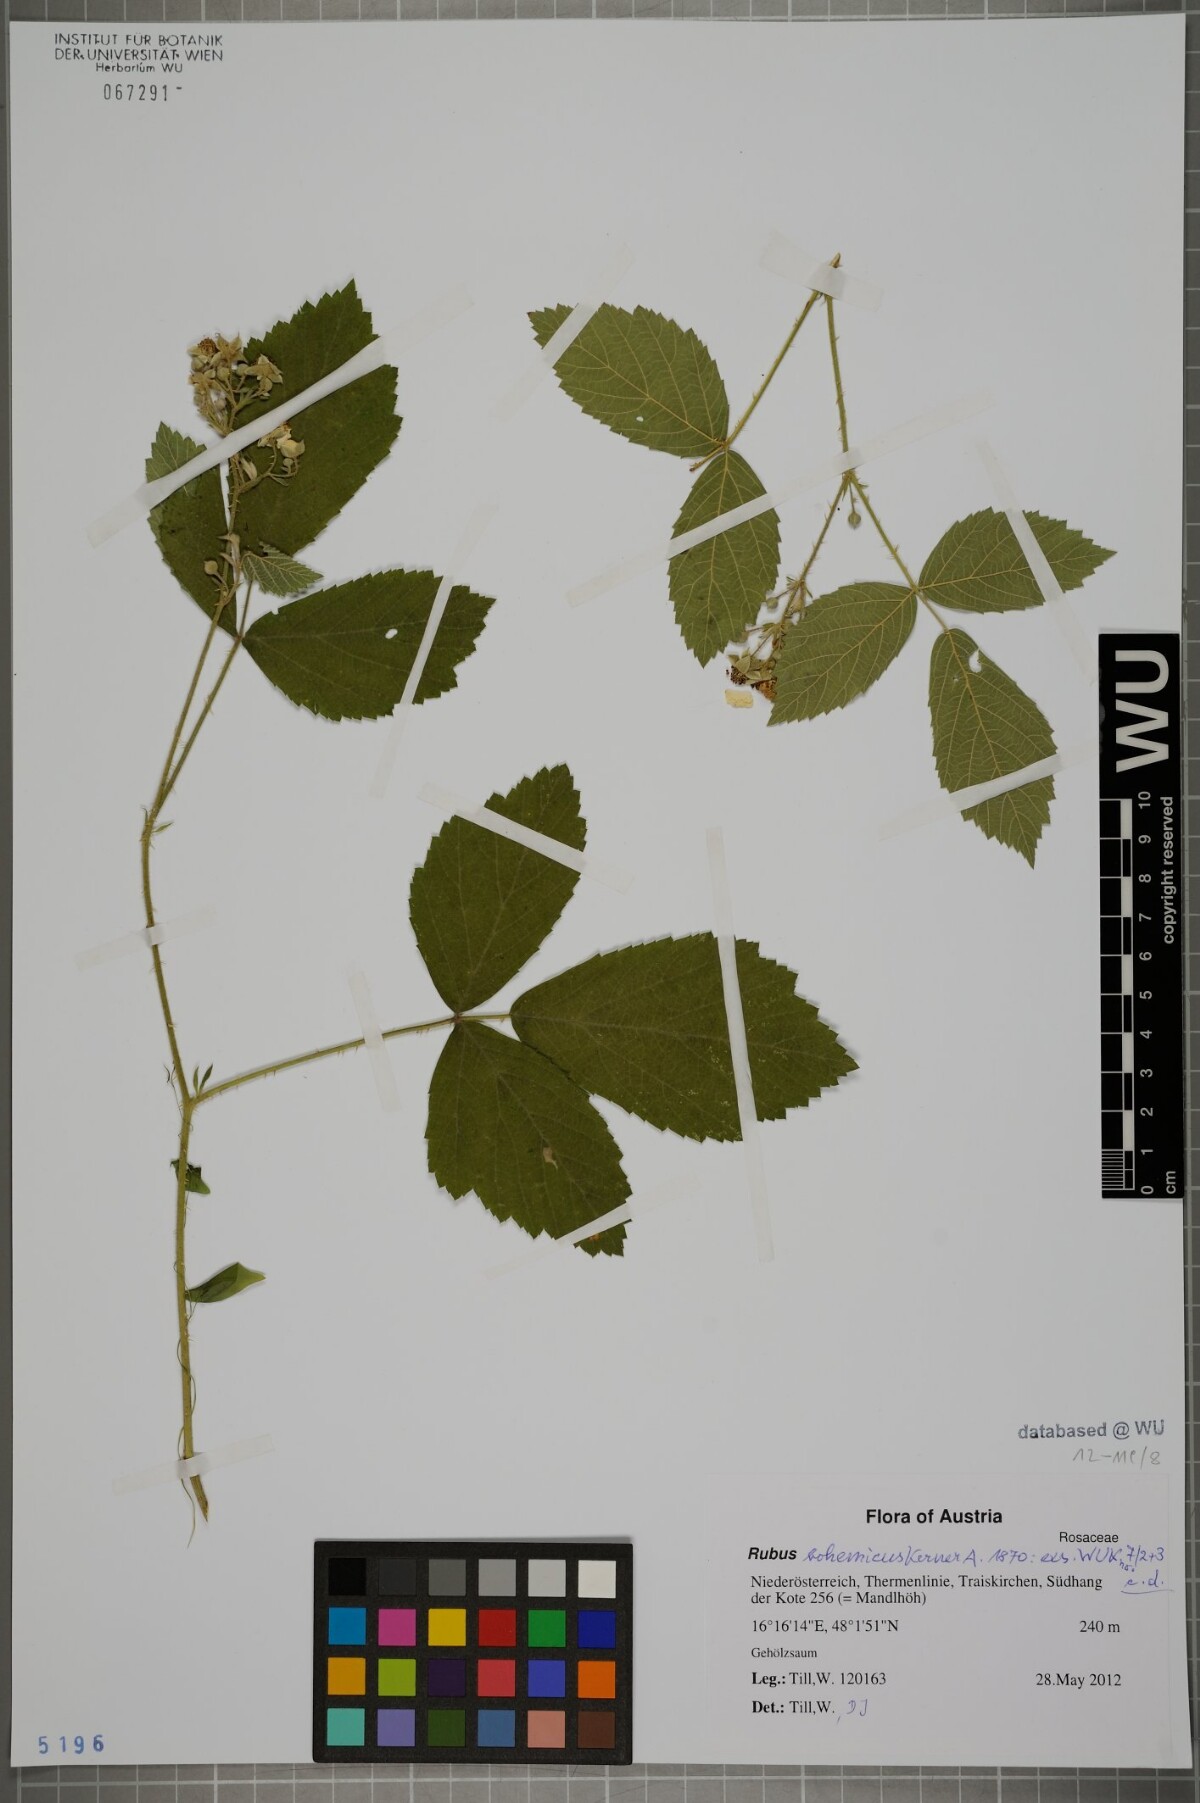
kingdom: Plantae
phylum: Tracheophyta
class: Magnoliopsida
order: Rosales
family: Rosaceae
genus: Rubus
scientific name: Rubus
